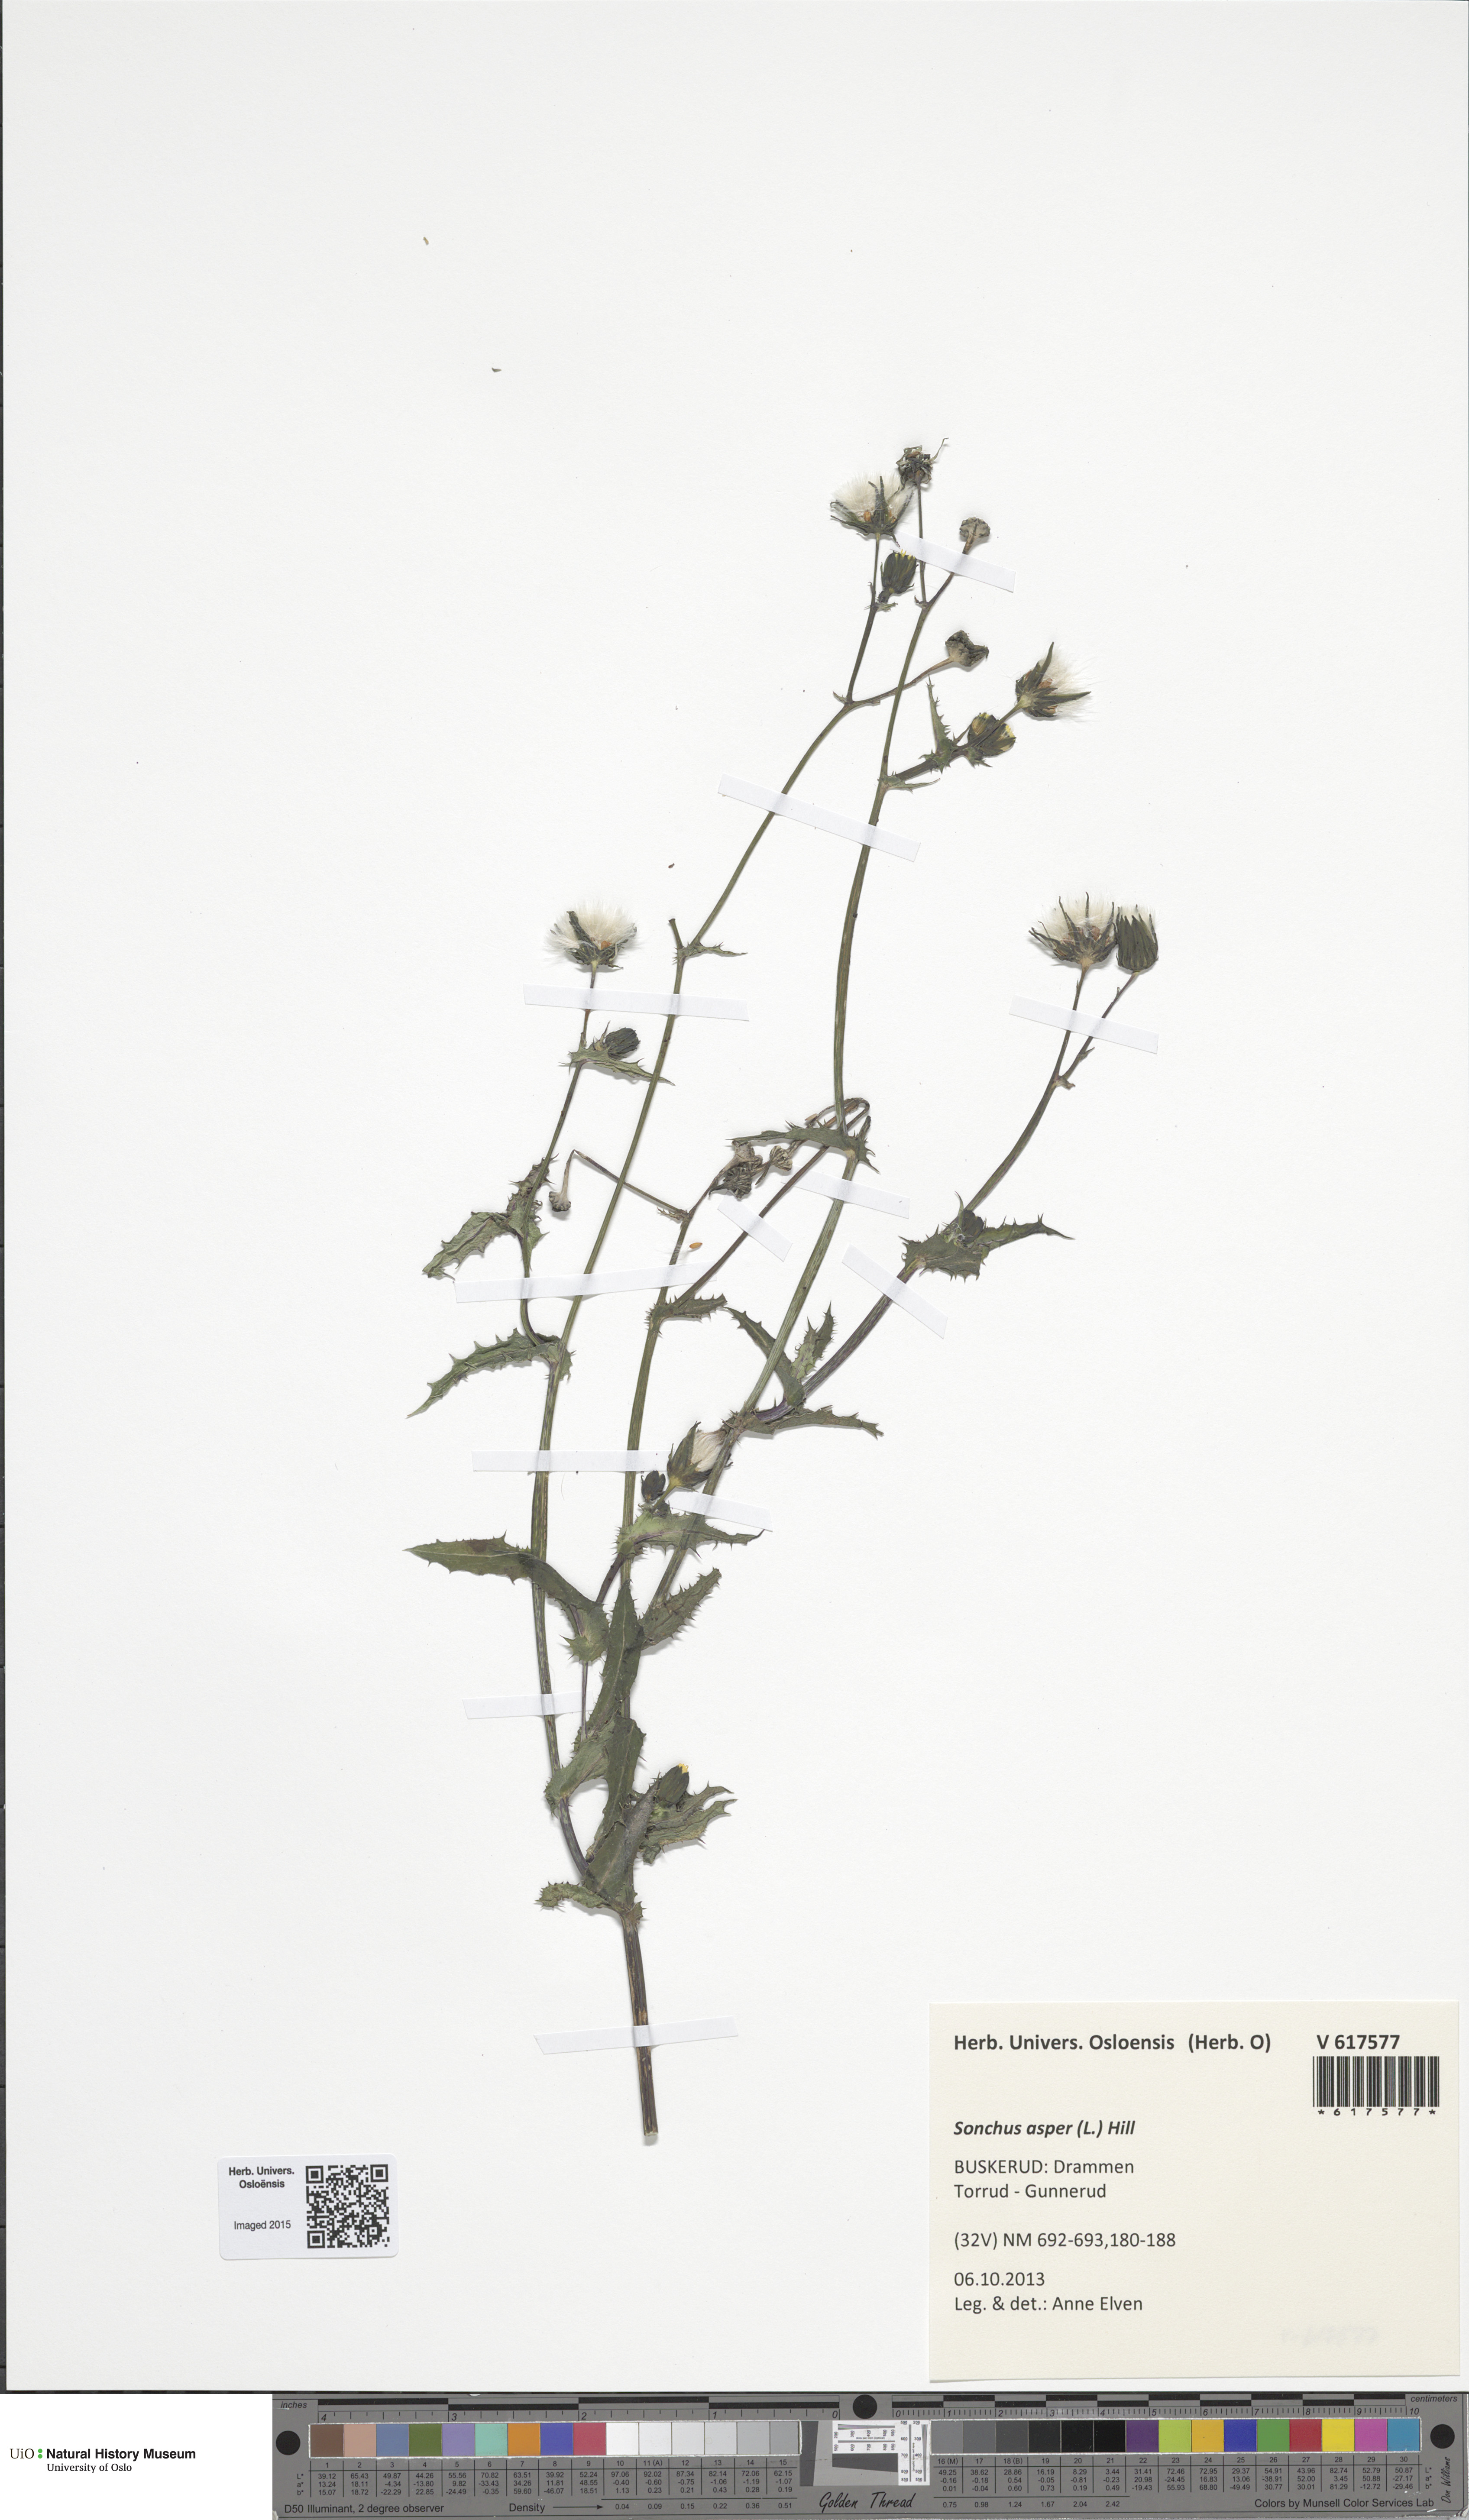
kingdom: Plantae
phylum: Tracheophyta
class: Magnoliopsida
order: Asterales
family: Asteraceae
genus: Sonchus
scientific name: Sonchus asper
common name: Prickly sow-thistle
